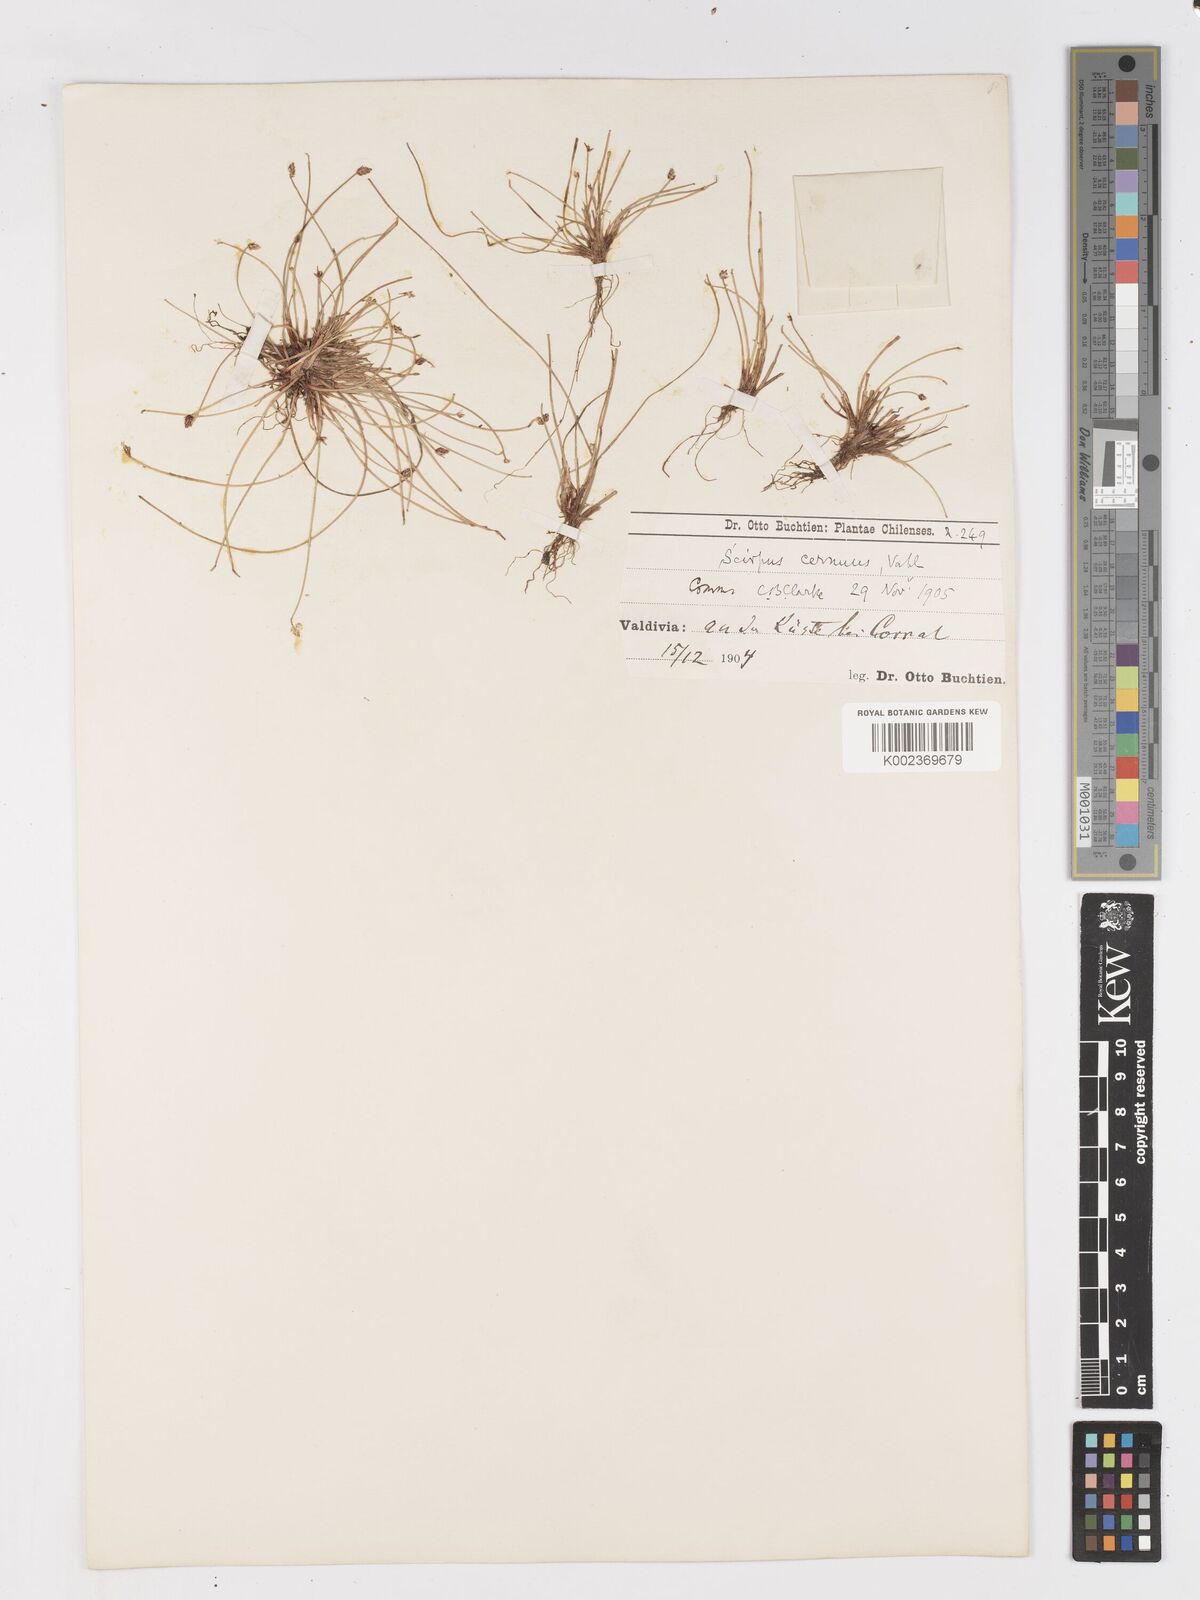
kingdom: Plantae
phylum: Tracheophyta
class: Liliopsida
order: Poales
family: Cyperaceae
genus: Isolepis
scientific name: Isolepis cernua
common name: Slender club-rush
